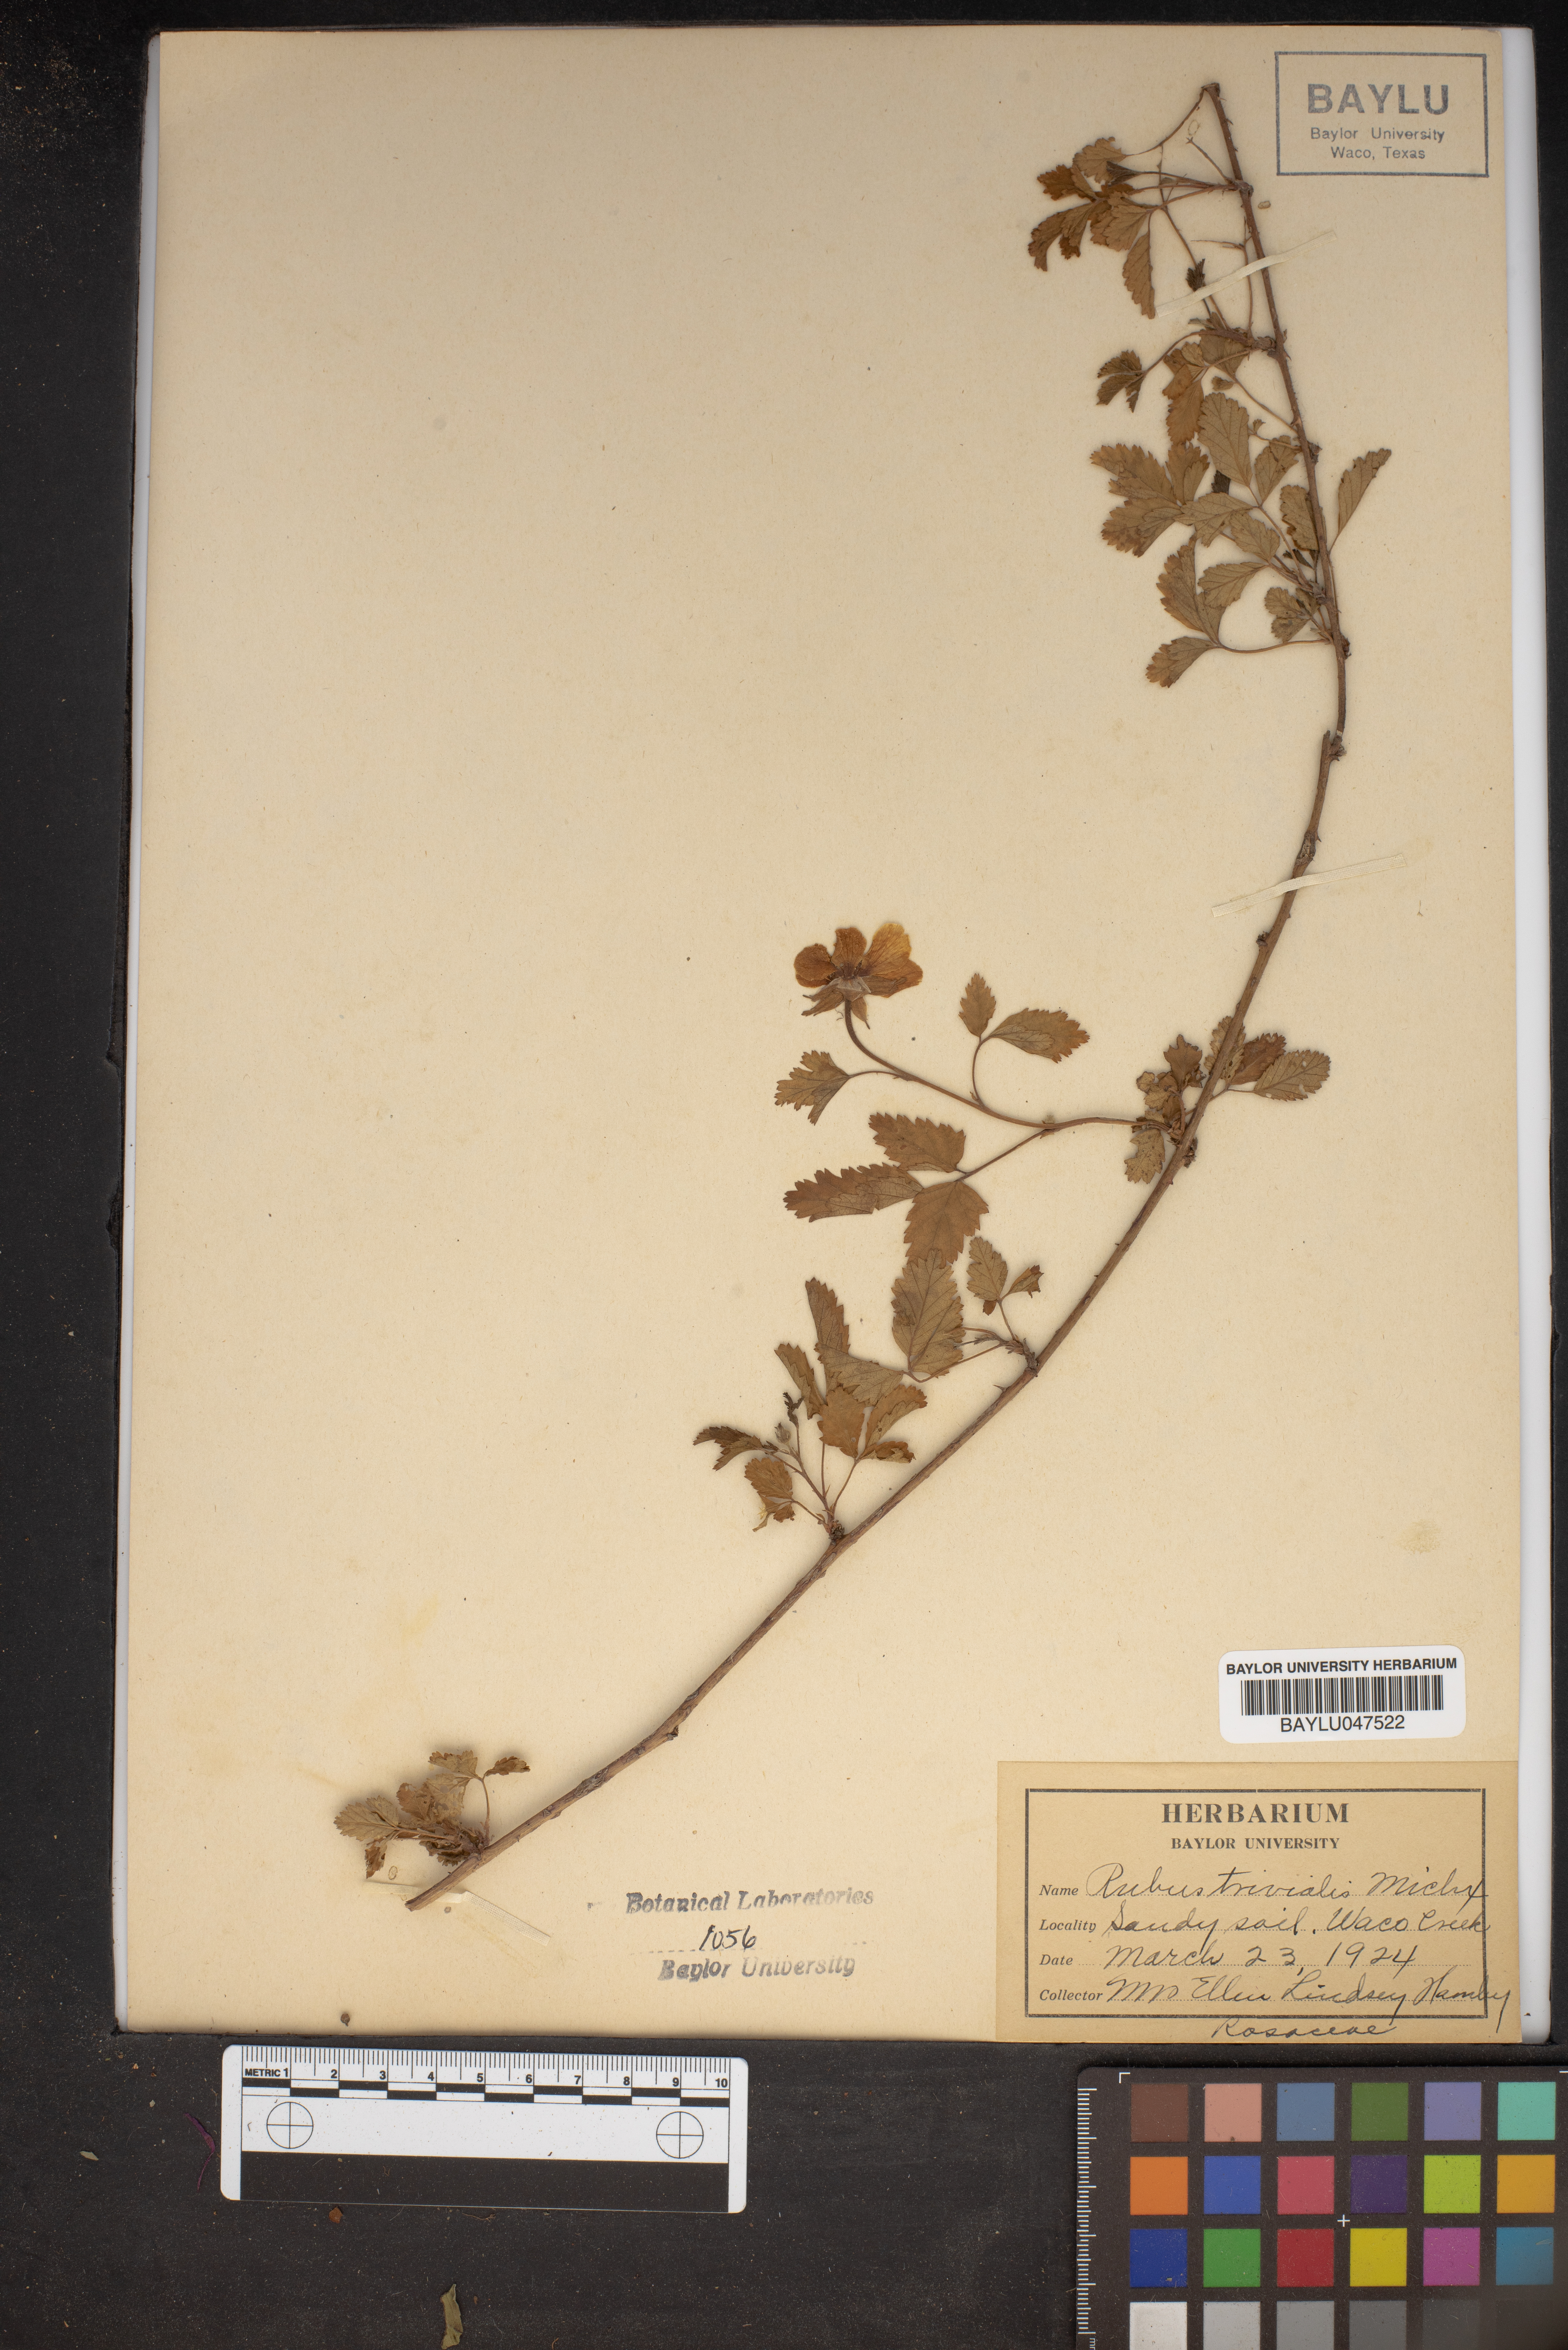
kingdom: Plantae
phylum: Tracheophyta
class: Magnoliopsida
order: Rosales
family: Rosaceae
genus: Rubus
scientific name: Rubus trivialis
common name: Southern dewberry
